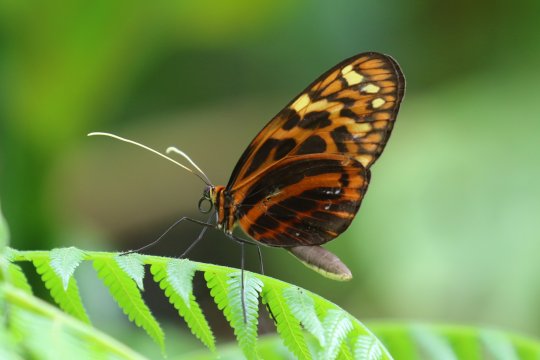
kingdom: Animalia
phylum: Arthropoda
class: Insecta
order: Lepidoptera
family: Nymphalidae
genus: Melinaea
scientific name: Melinaea satevis
